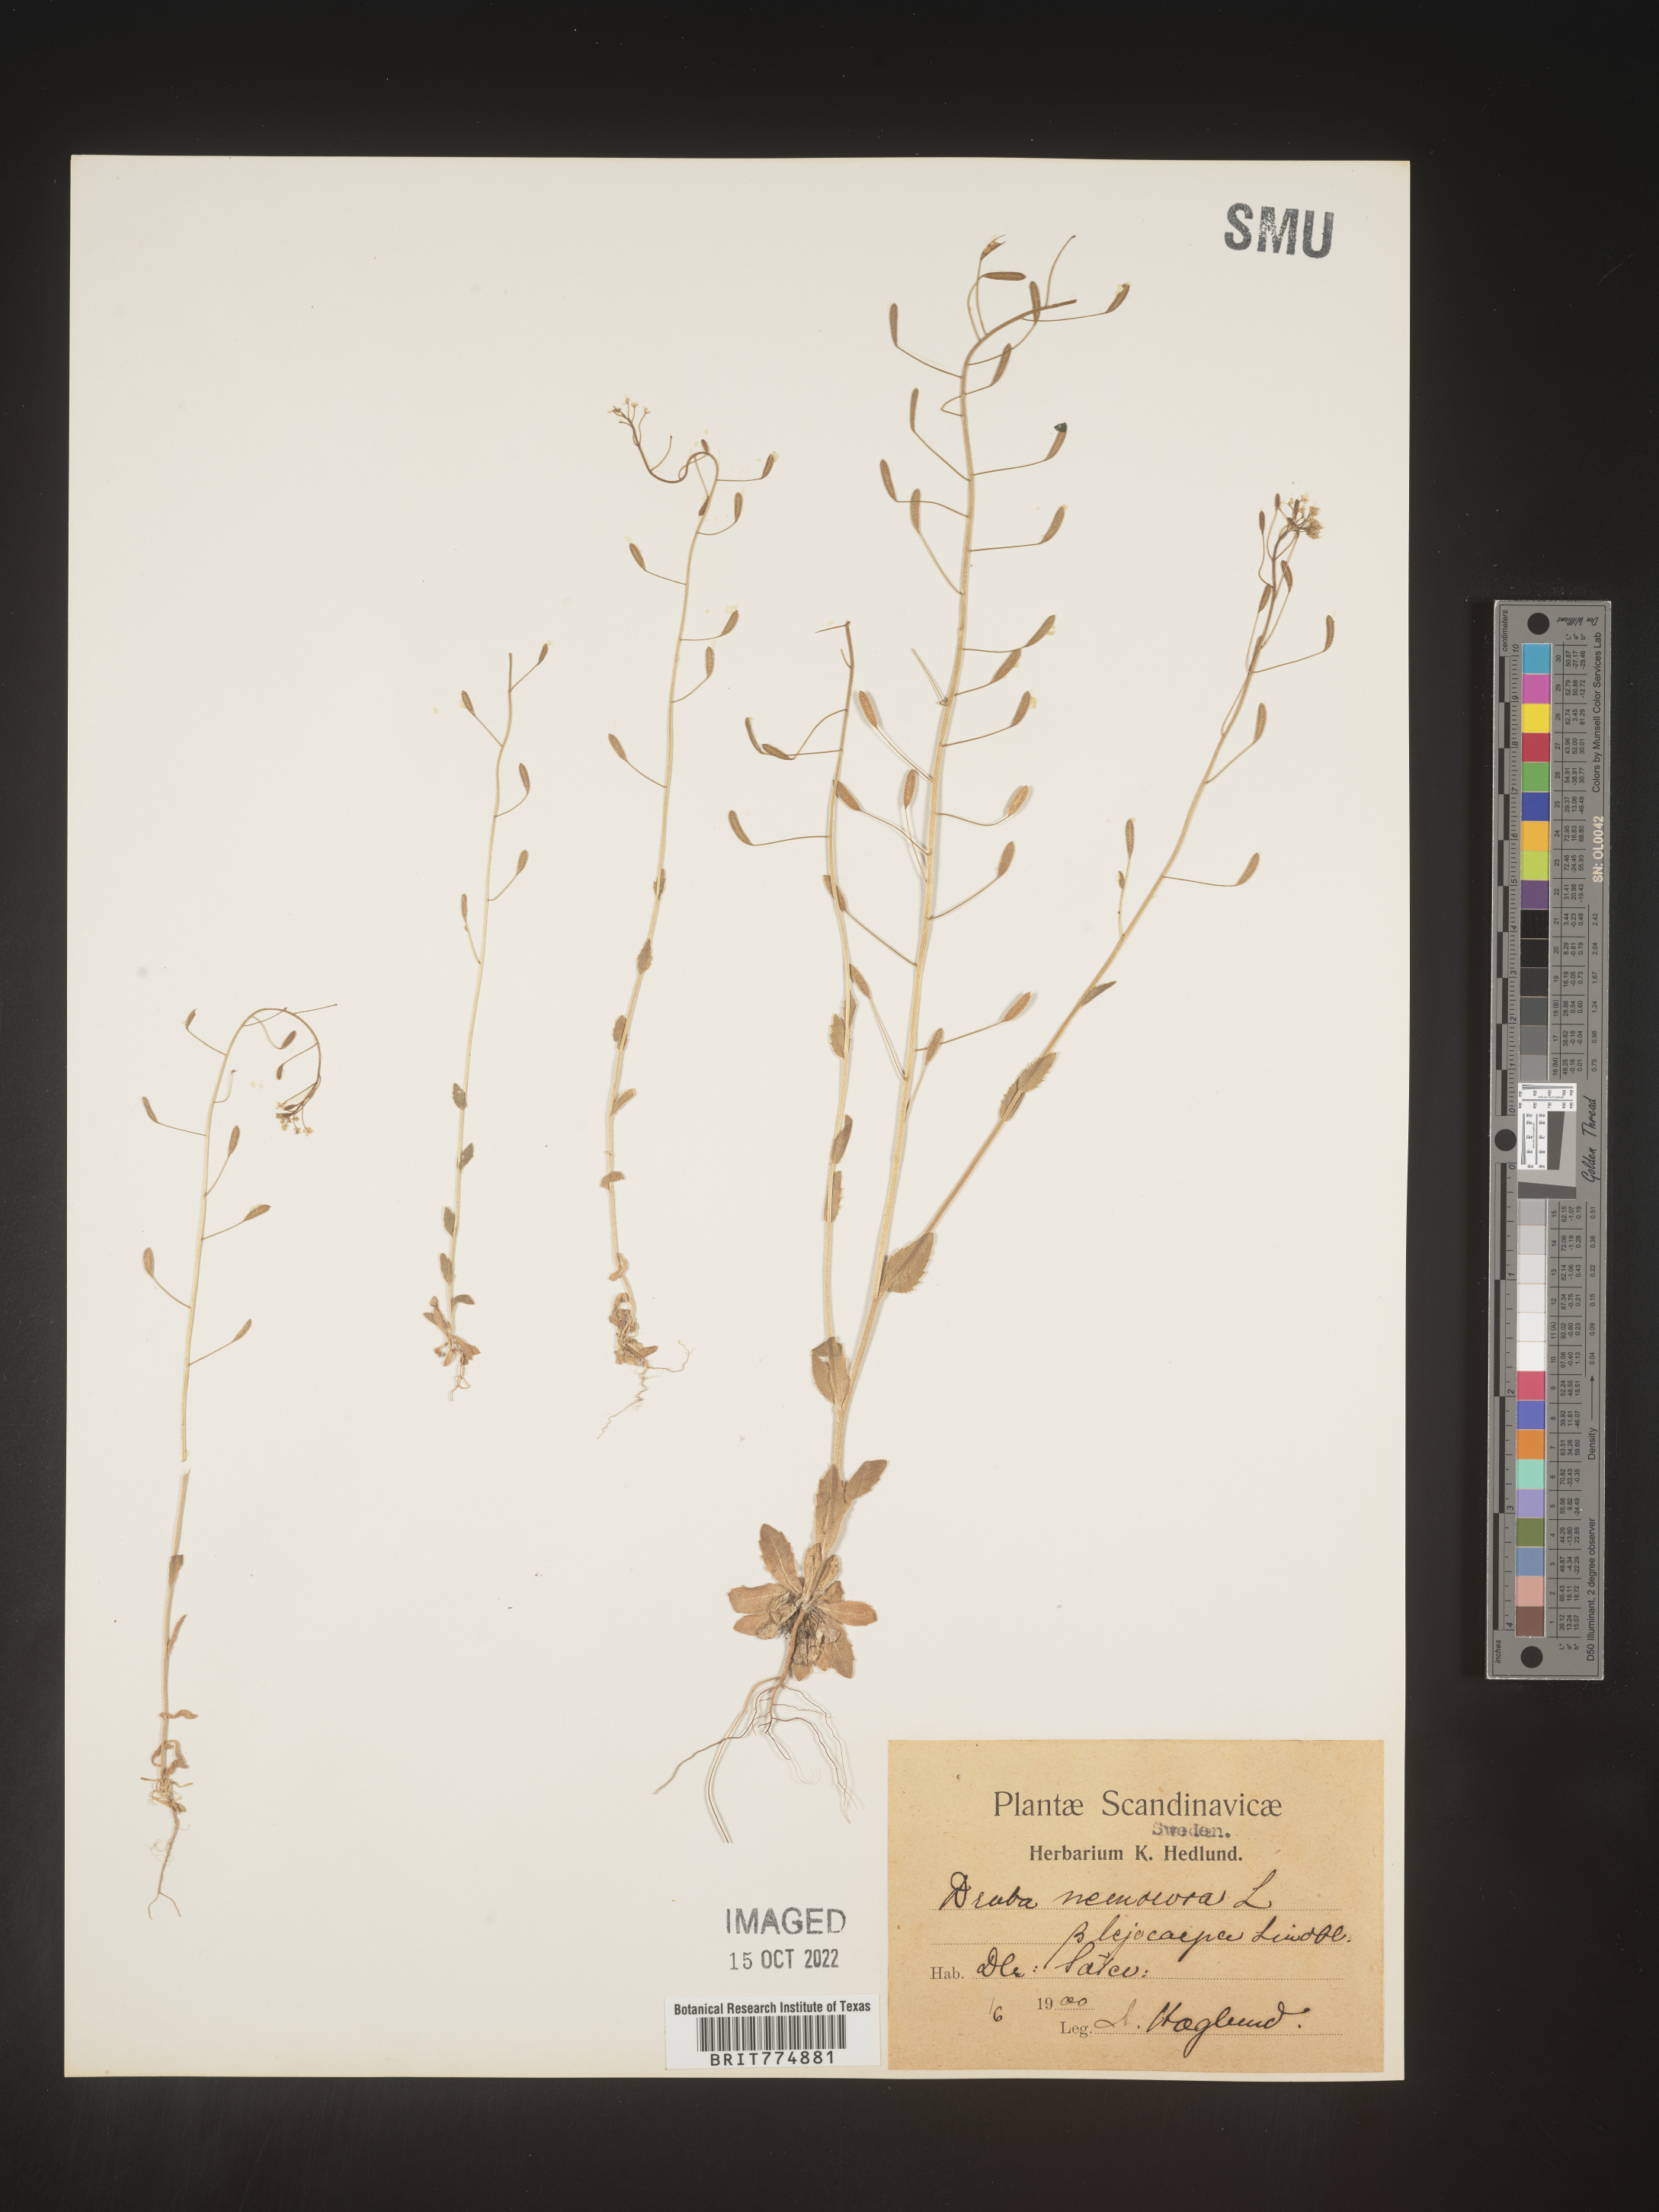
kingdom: Plantae
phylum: Tracheophyta
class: Magnoliopsida
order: Brassicales
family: Brassicaceae
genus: Draba
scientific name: Draba
